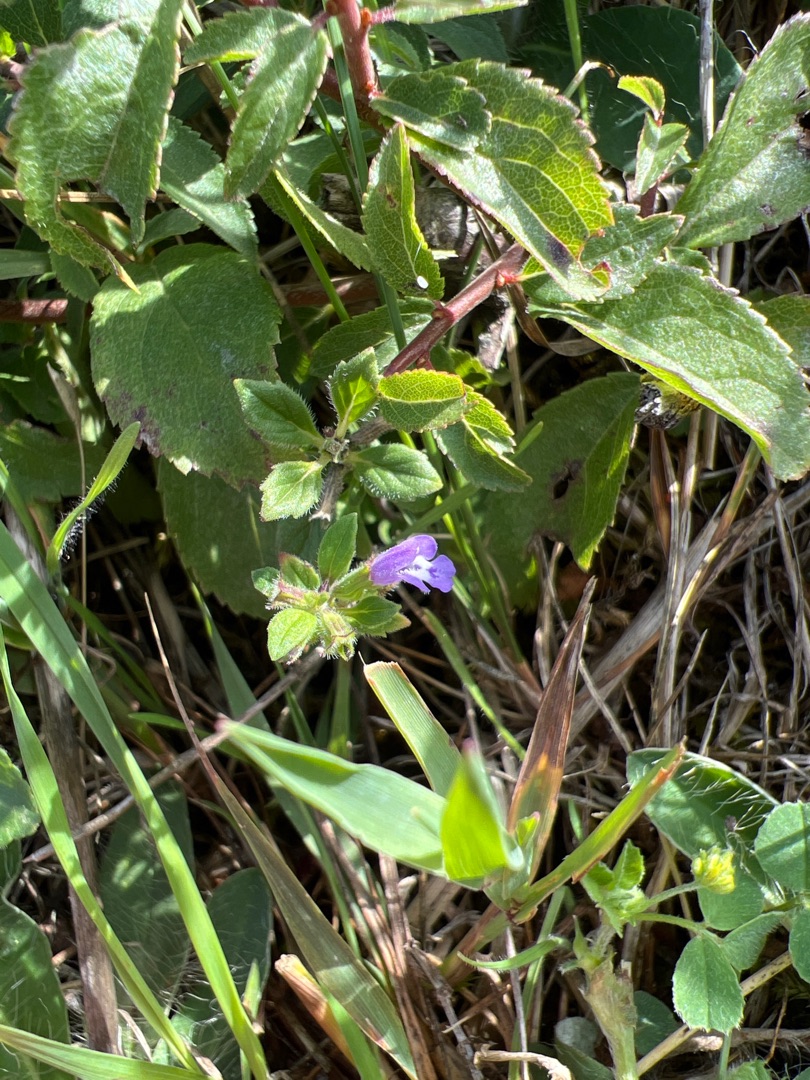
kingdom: Plantae
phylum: Tracheophyta
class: Magnoliopsida
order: Lamiales
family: Lamiaceae
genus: Clinopodium
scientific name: Clinopodium acinos
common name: Voldtimian
